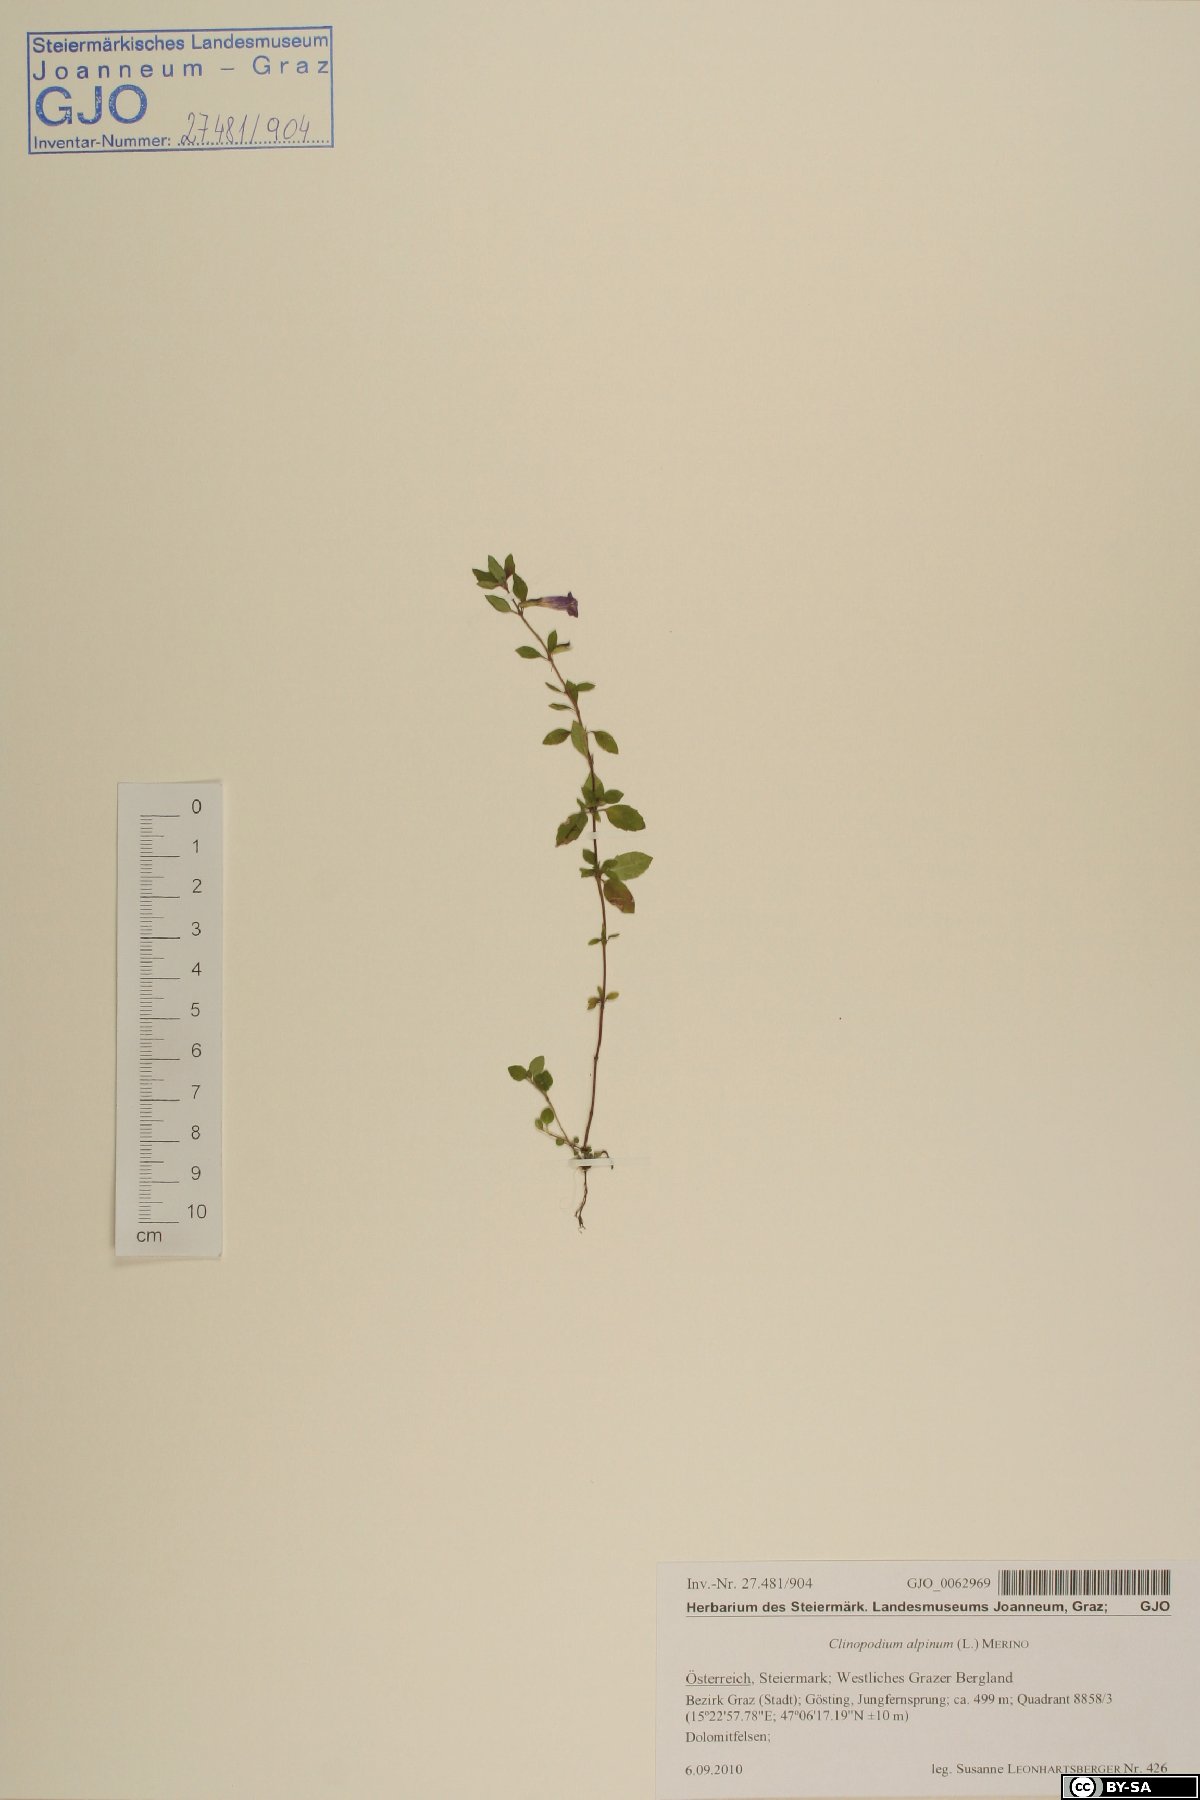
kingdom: Plantae
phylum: Tracheophyta
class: Magnoliopsida
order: Lamiales
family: Lamiaceae
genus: Clinopodium
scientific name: Clinopodium alpinum
